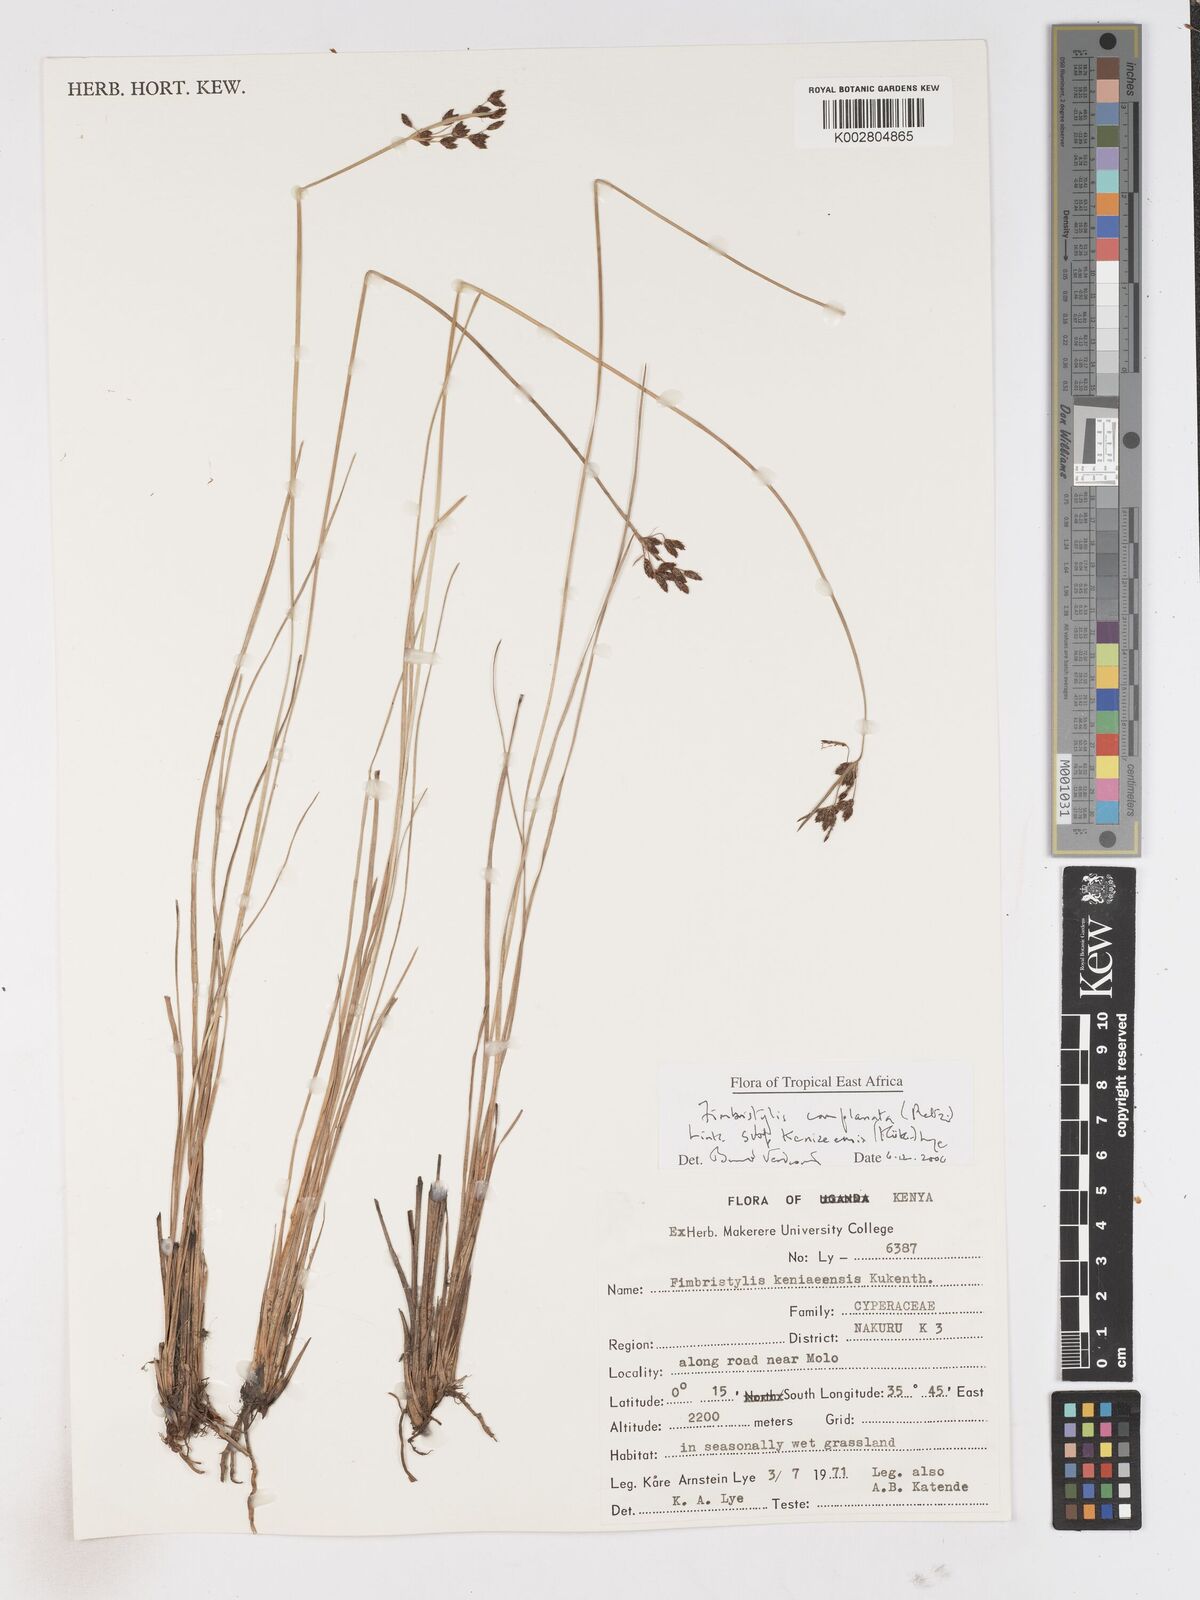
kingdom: Plantae
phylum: Tracheophyta
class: Liliopsida
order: Poales
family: Cyperaceae
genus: Fimbristylis
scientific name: Fimbristylis complanata
